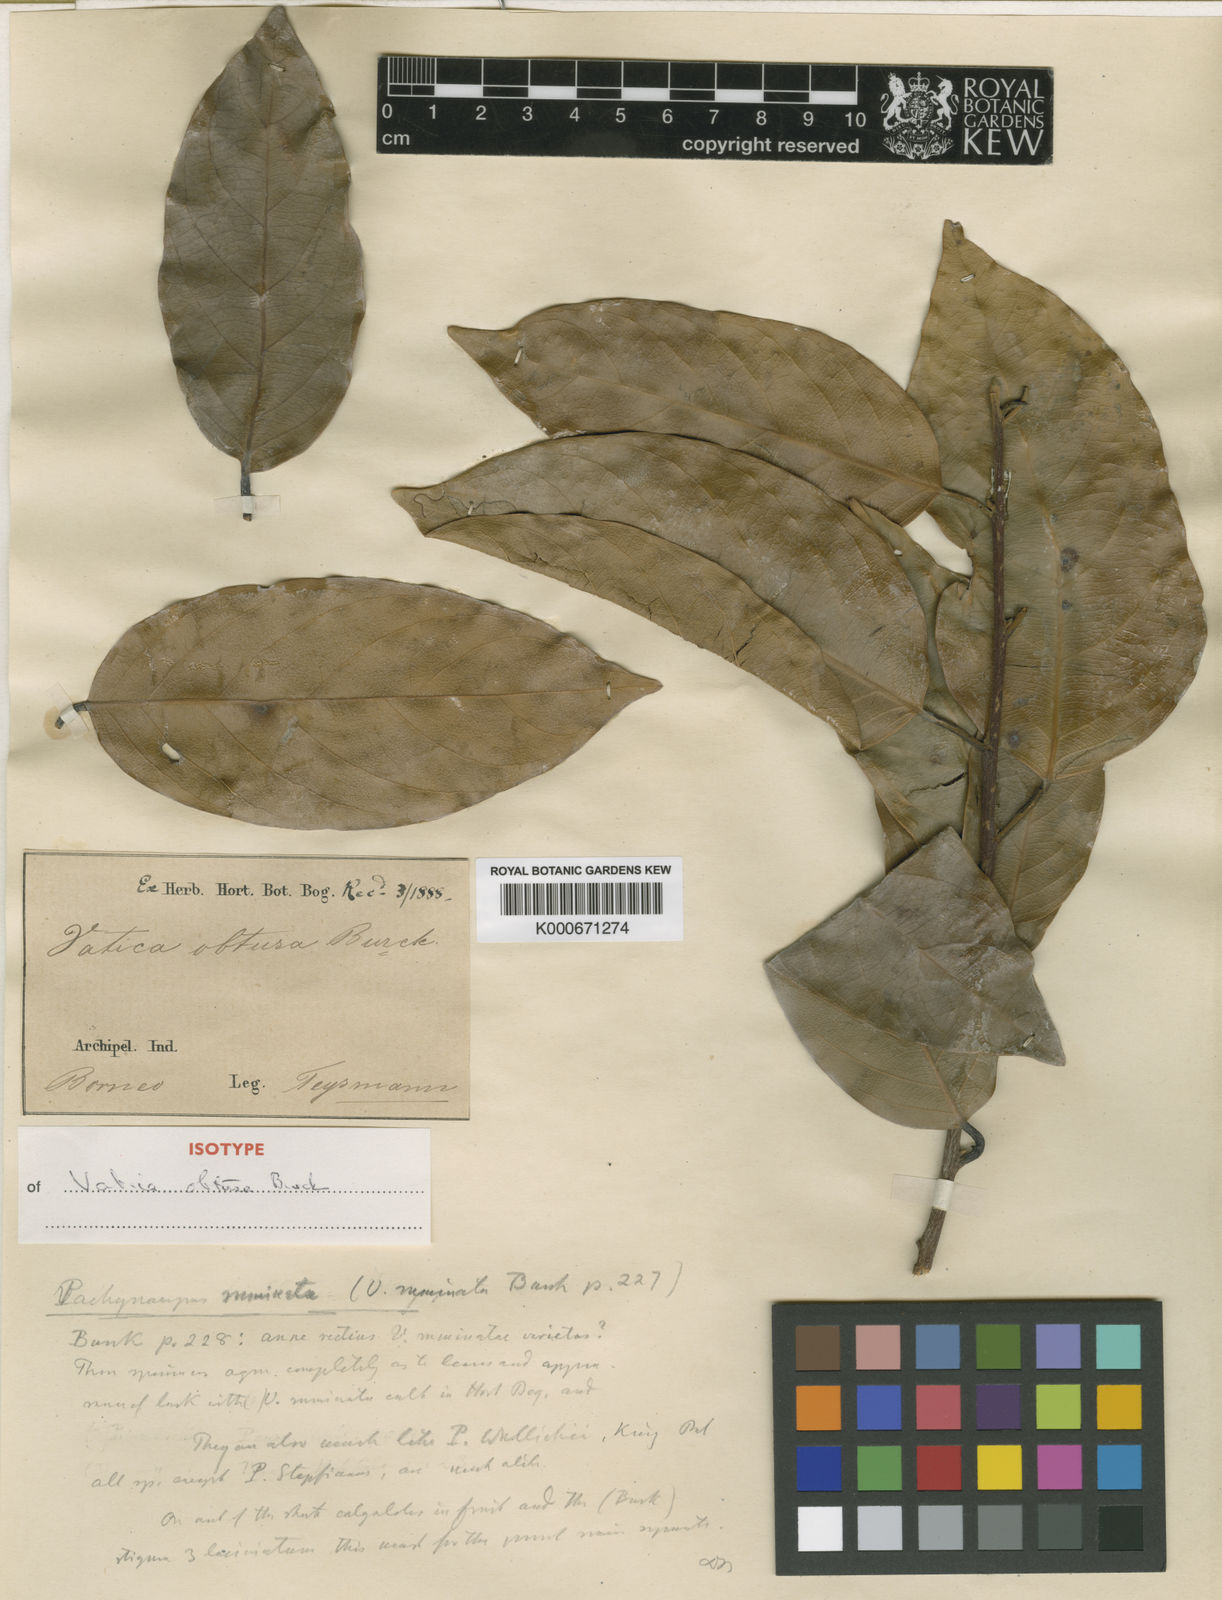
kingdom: Plantae
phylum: Tracheophyta
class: Magnoliopsida
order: Malvales
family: Dipterocarpaceae
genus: Vatica
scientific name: Vatica
